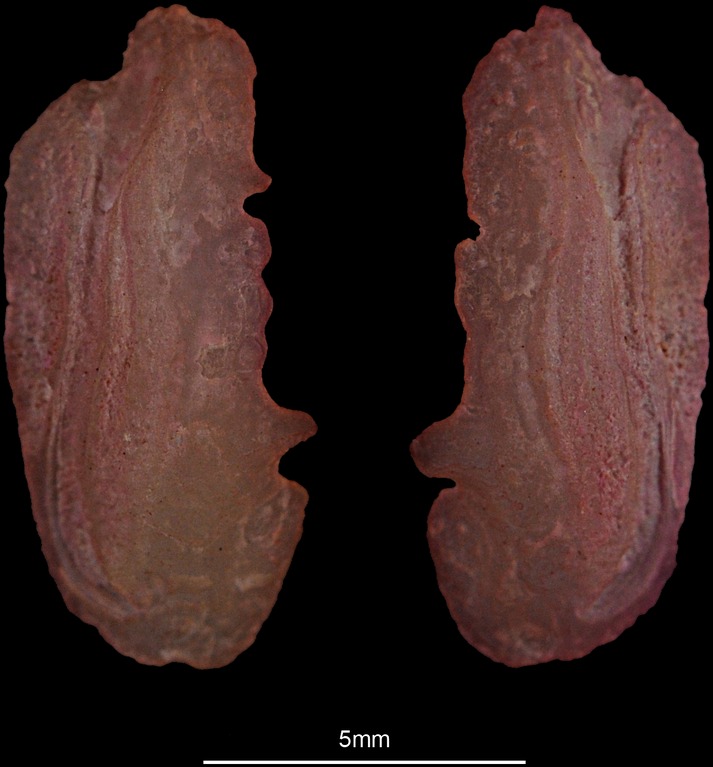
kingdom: Animalia
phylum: Chordata
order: Mugiliformes
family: Mugilidae
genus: Chelon
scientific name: Chelon ramada
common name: Thinlip grey mullet
